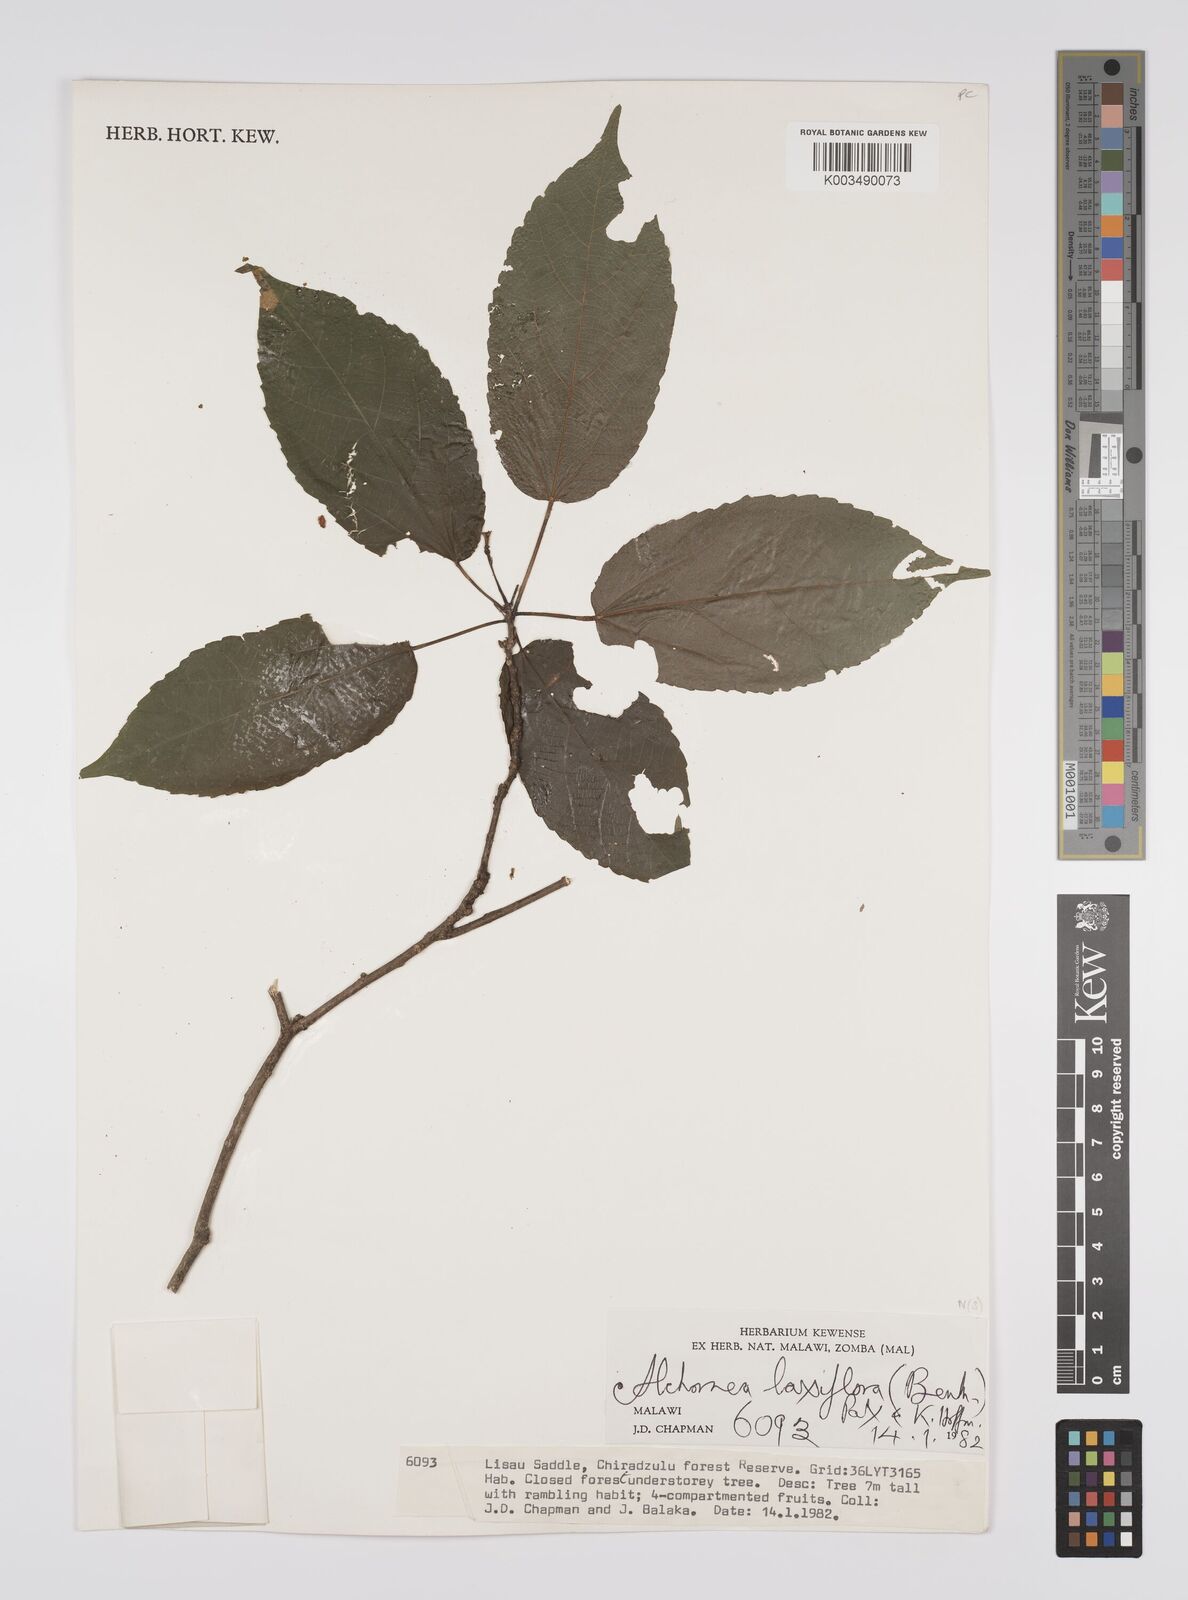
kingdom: Plantae
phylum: Tracheophyta
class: Magnoliopsida
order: Malpighiales
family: Euphorbiaceae
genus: Alchornea
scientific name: Alchornea laxiflora
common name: Lowveld bead-string
